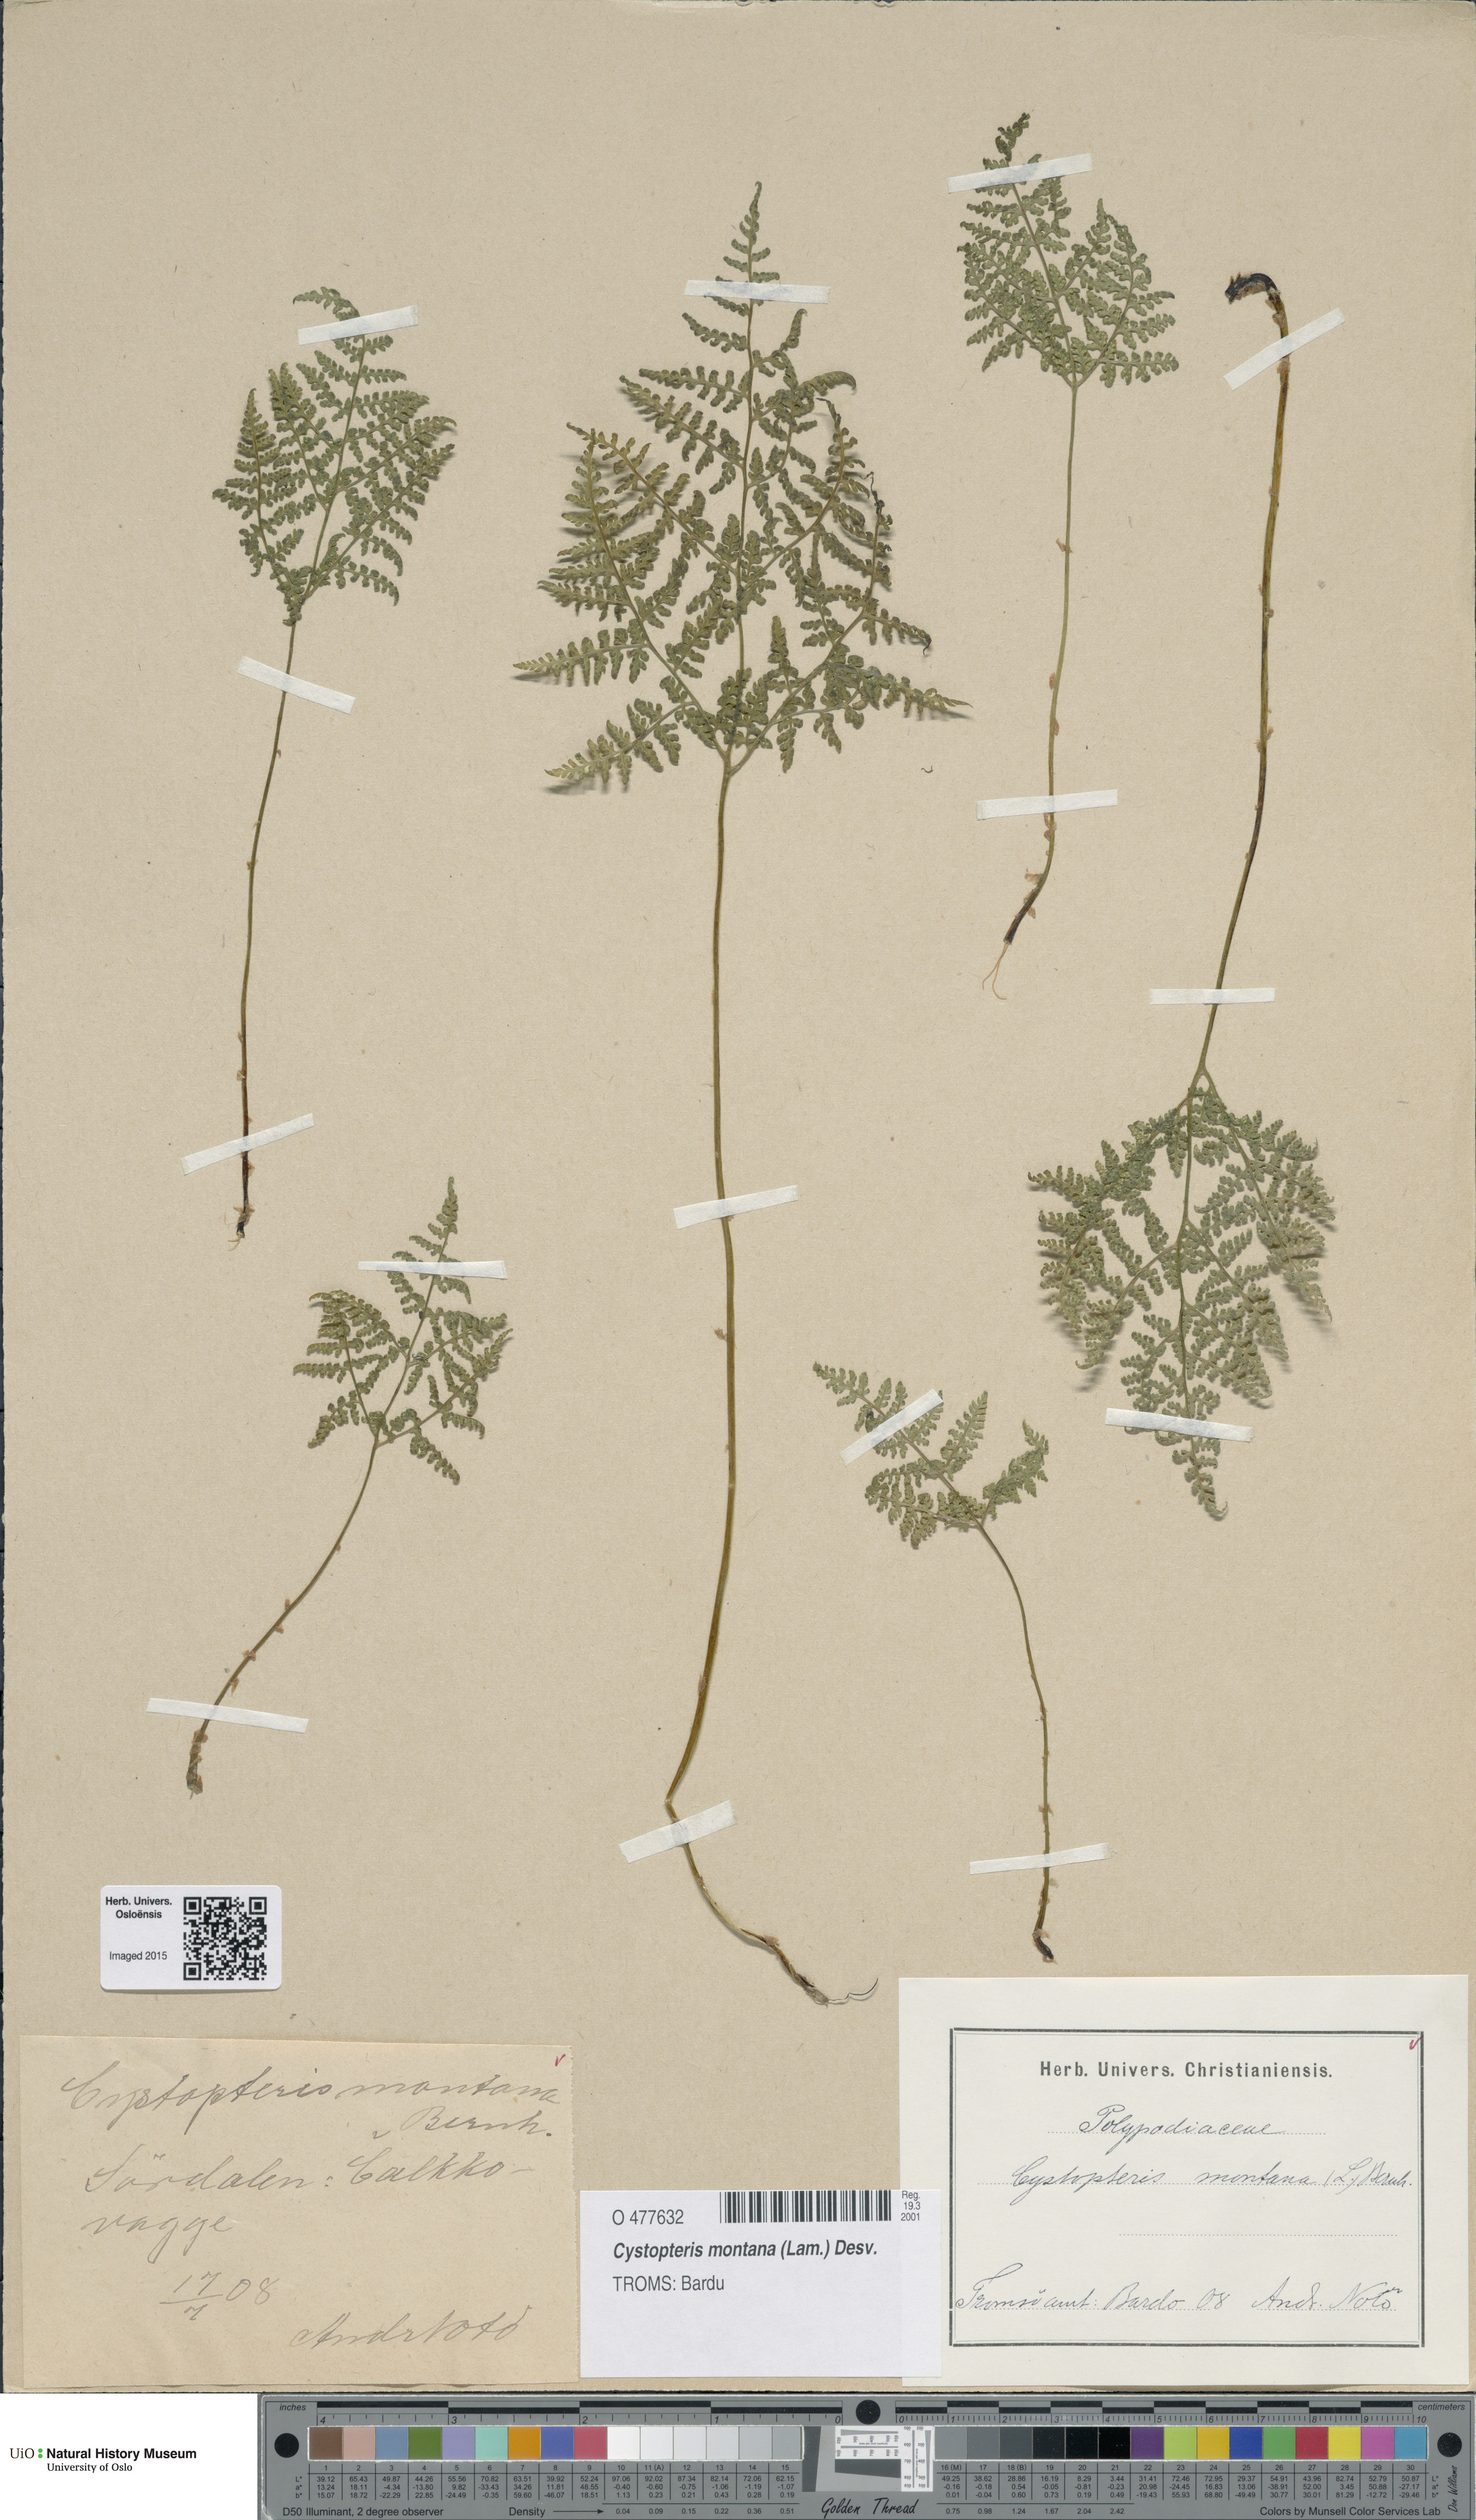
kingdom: Plantae
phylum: Tracheophyta
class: Polypodiopsida
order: Polypodiales
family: Cystopteridaceae
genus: Cystopteris
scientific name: Cystopteris montana
